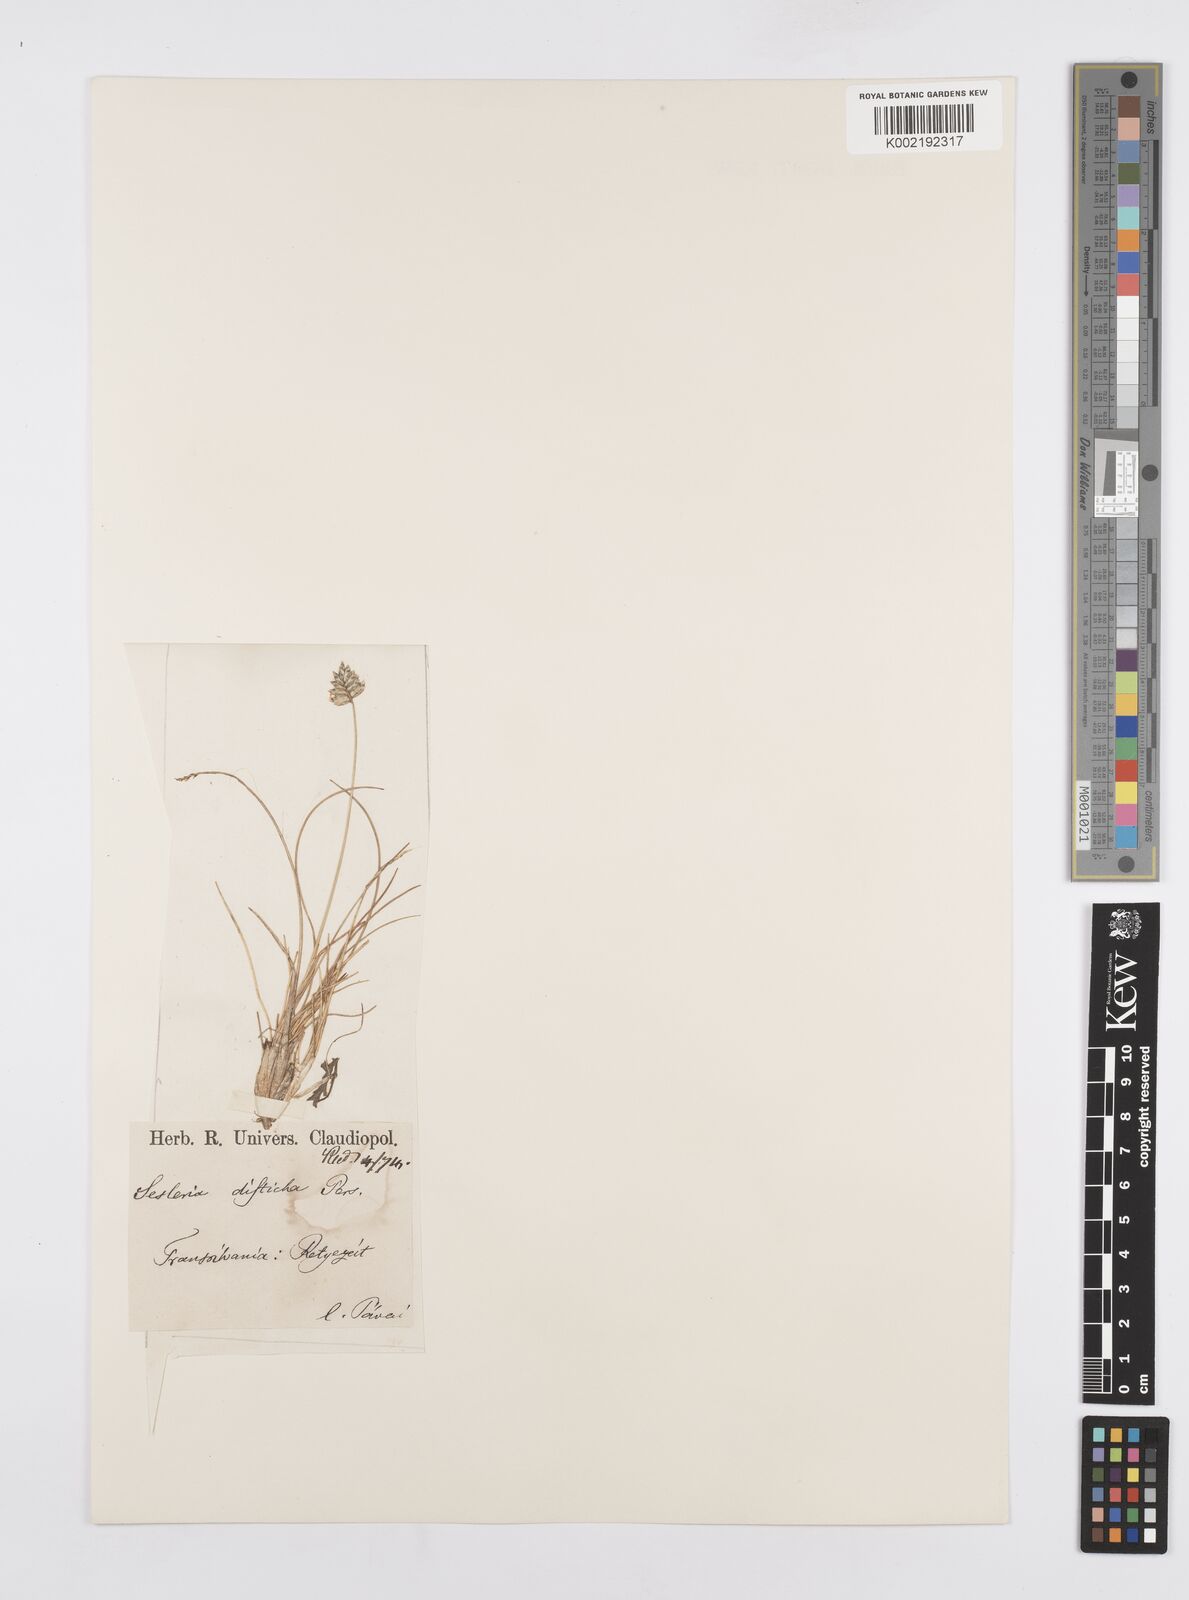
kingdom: Plantae
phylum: Tracheophyta
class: Liliopsida
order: Poales
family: Poaceae
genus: Oreochloa
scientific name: Oreochloa disticha
